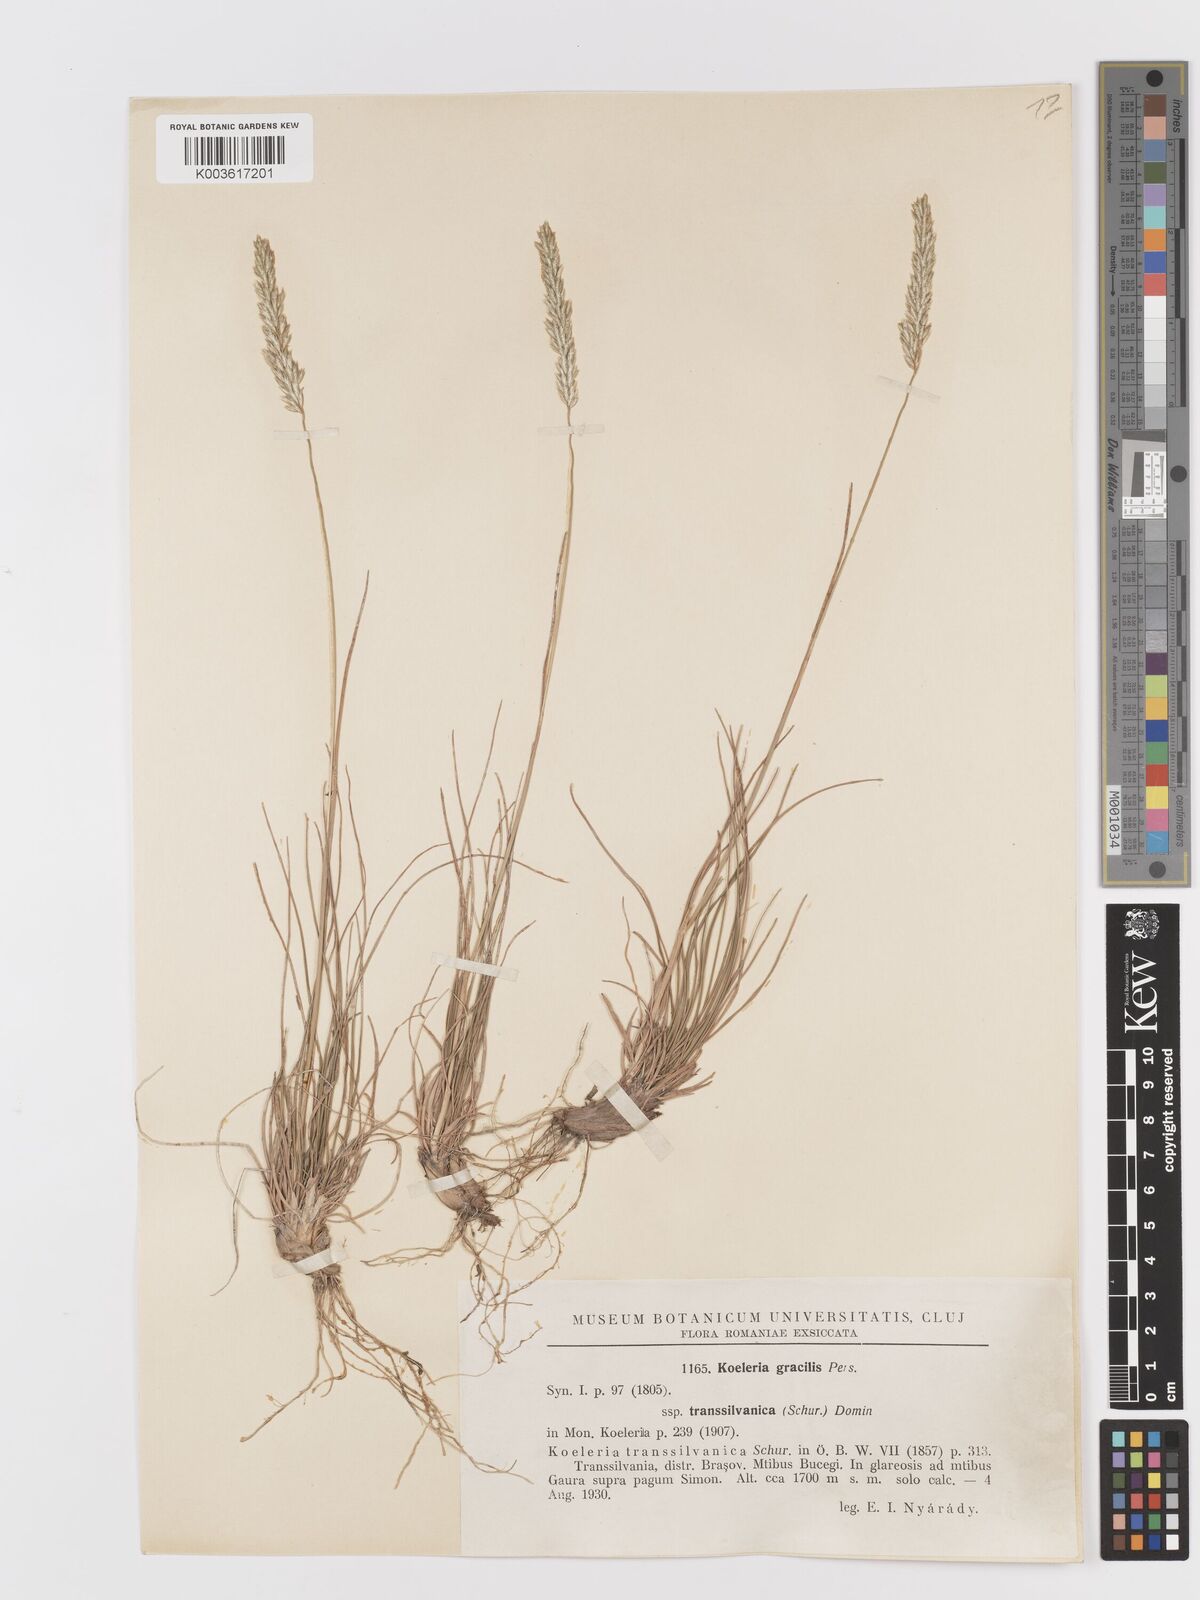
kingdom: Plantae
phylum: Tracheophyta
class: Liliopsida
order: Poales
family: Poaceae
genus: Koeleria
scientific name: Koeleria macrantha
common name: Crested hair-grass
